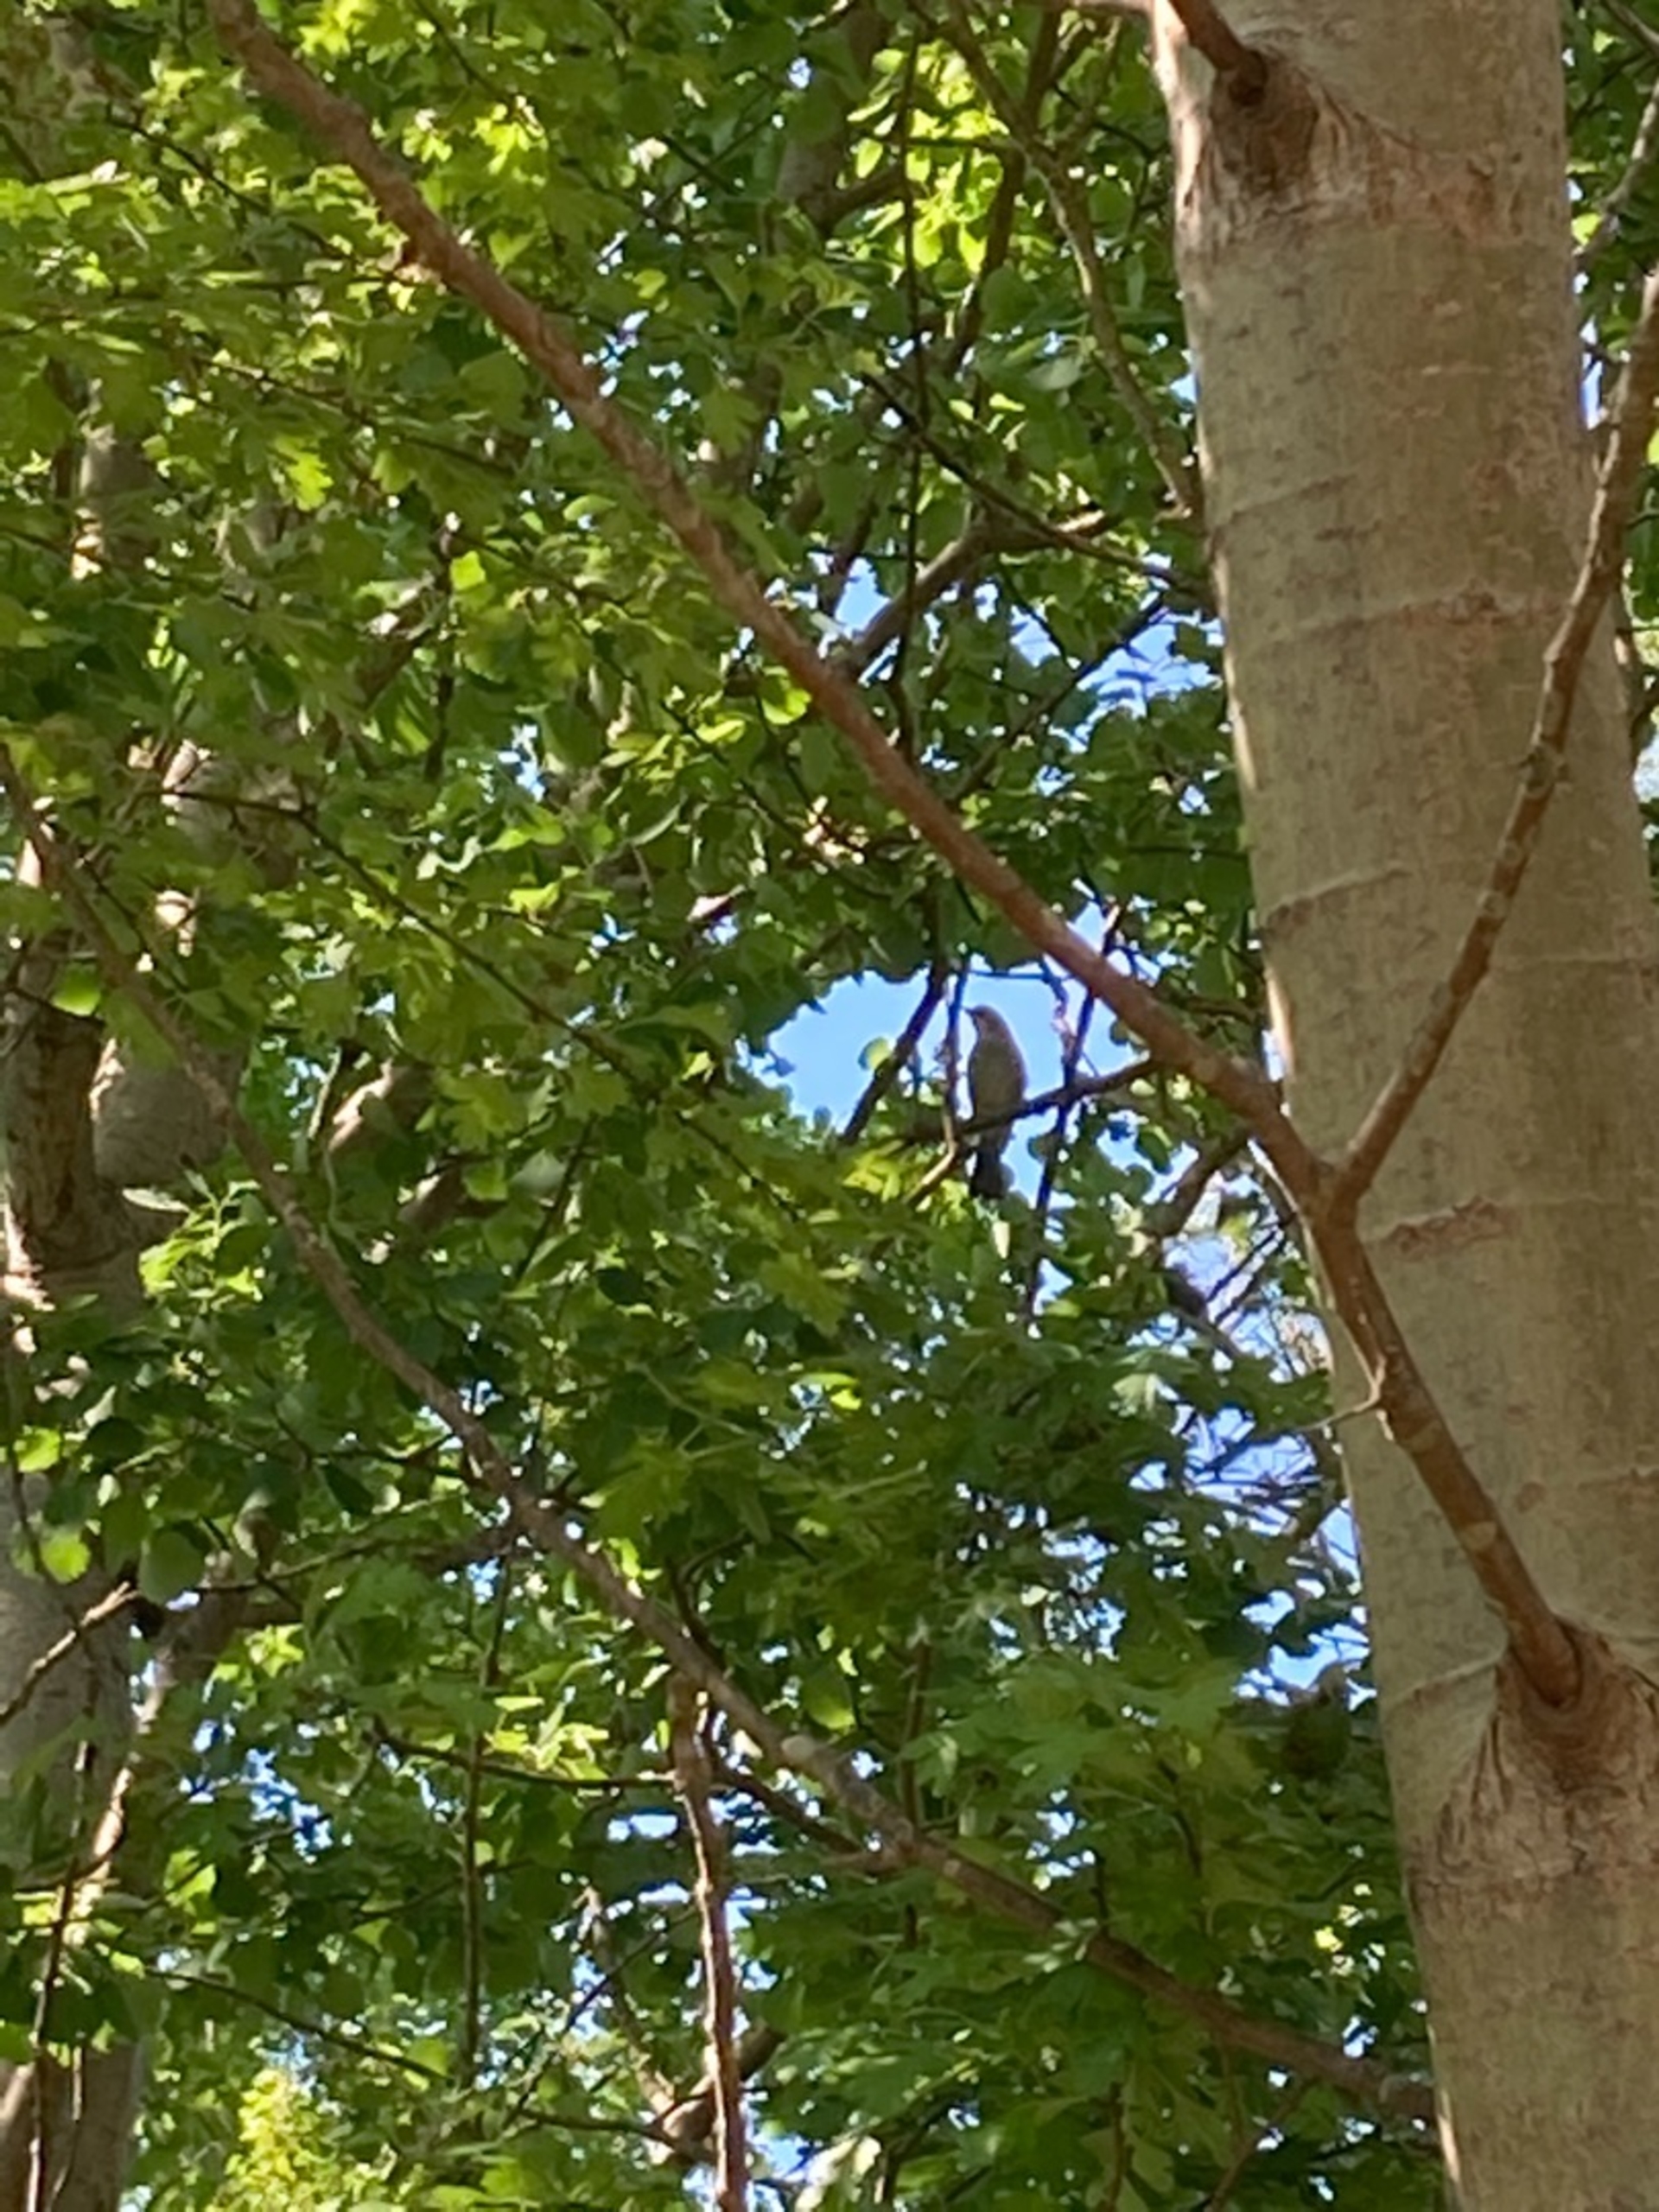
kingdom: Animalia
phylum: Chordata
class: Aves
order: Passeriformes
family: Corvidae
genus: Garrulus
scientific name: Garrulus glandarius
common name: Skovskade
